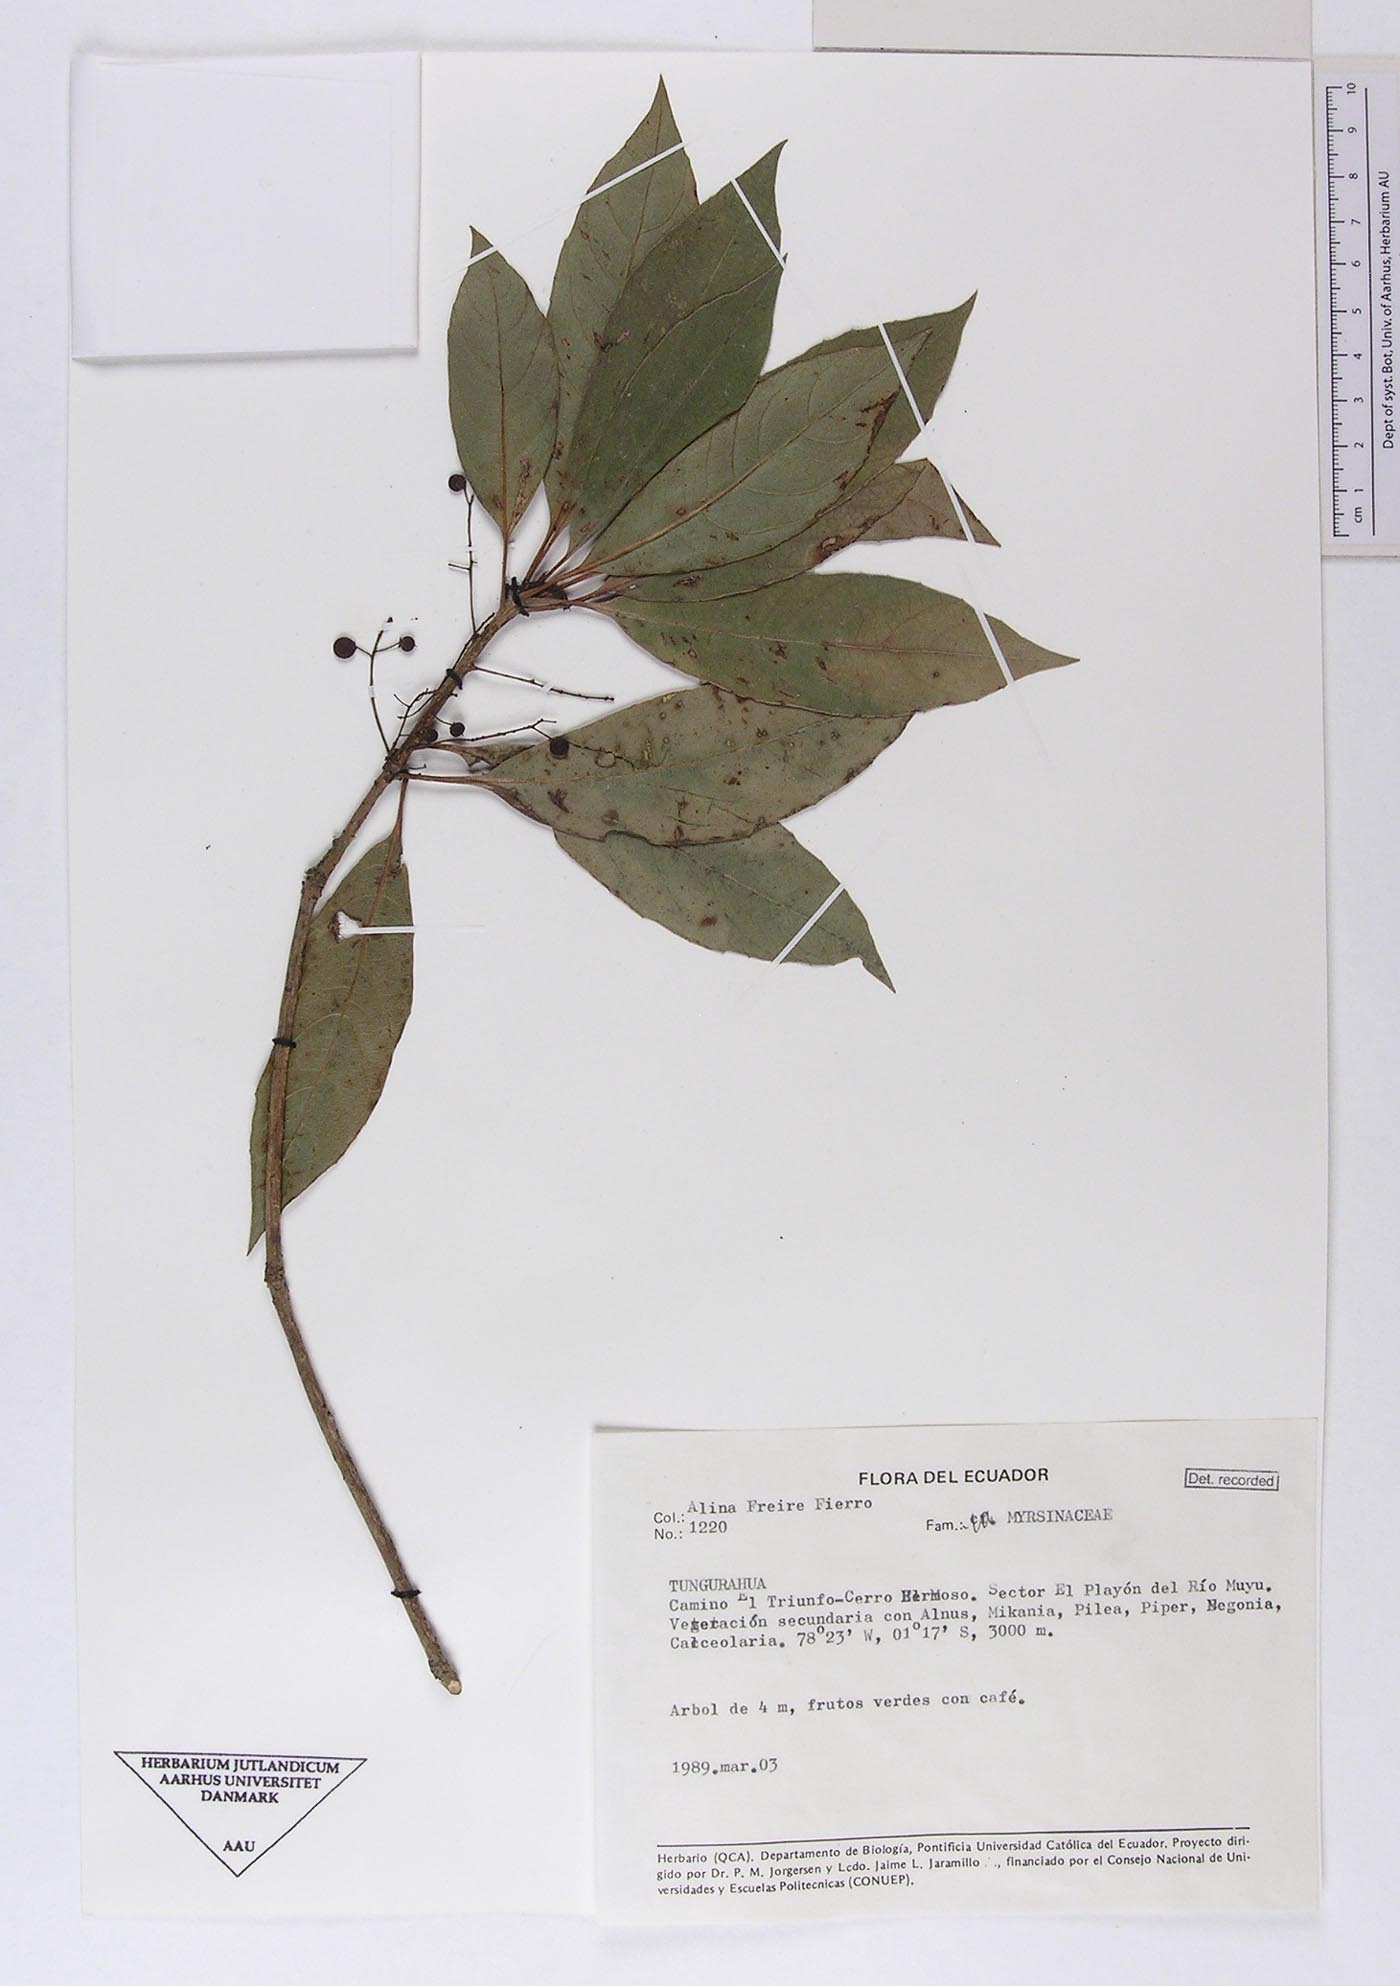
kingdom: Plantae
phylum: Tracheophyta
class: Magnoliopsida
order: Ericales
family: Primulaceae
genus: Cybianthus
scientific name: Cybianthus pastensis
